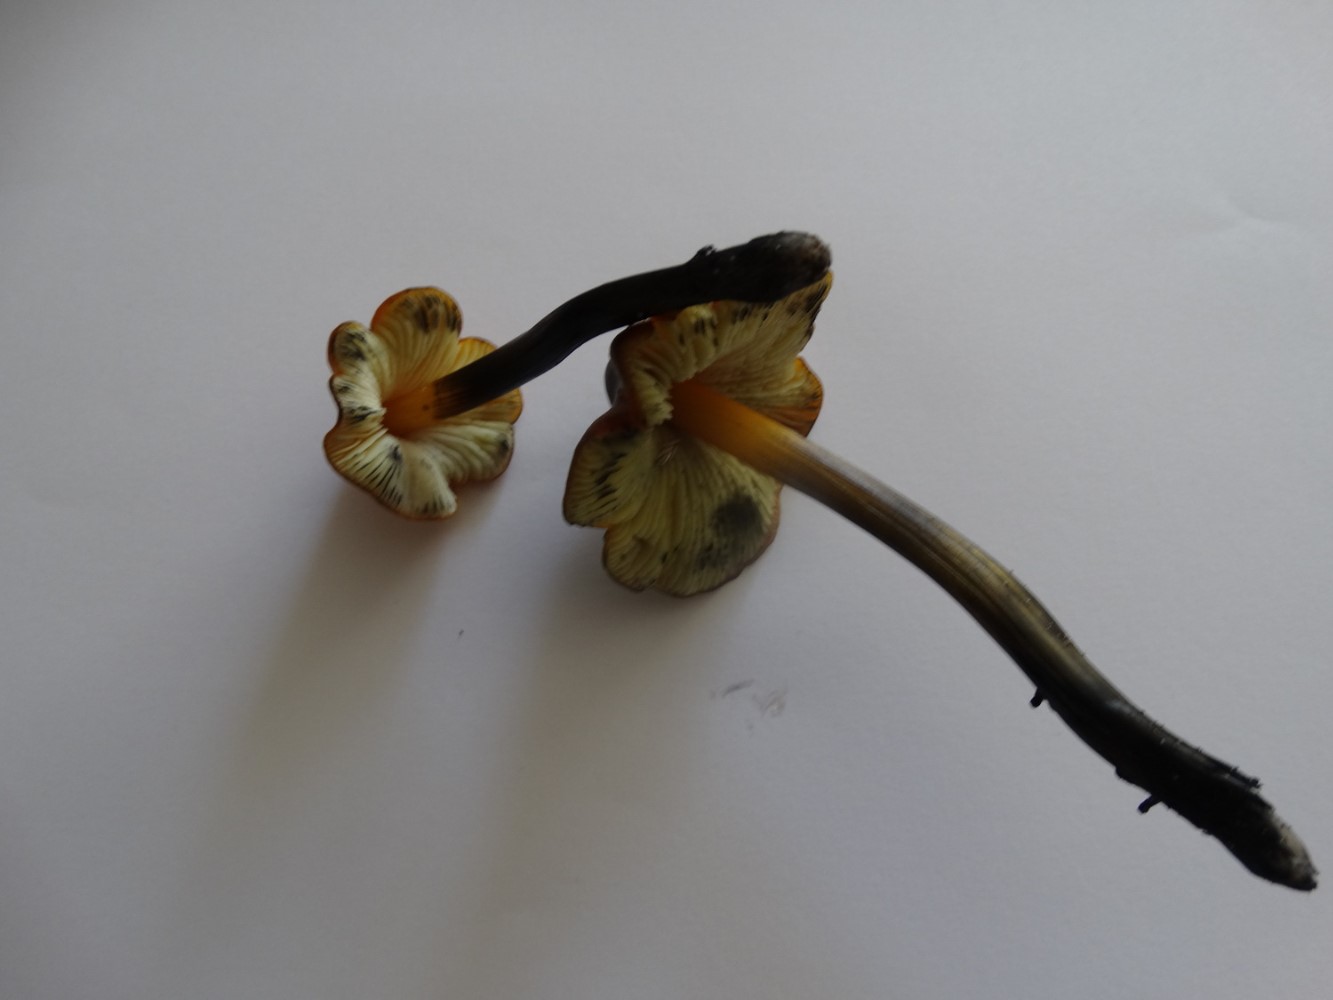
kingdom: Fungi
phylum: Basidiomycota
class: Agaricomycetes
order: Agaricales
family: Hygrophoraceae
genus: Hygrocybe
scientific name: Hygrocybe conica
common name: kegle-vokshat
